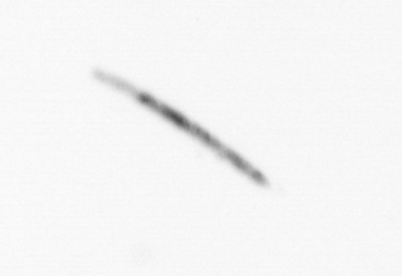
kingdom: Chromista
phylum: Ochrophyta
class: Bacillariophyceae
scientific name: Bacillariophyceae
